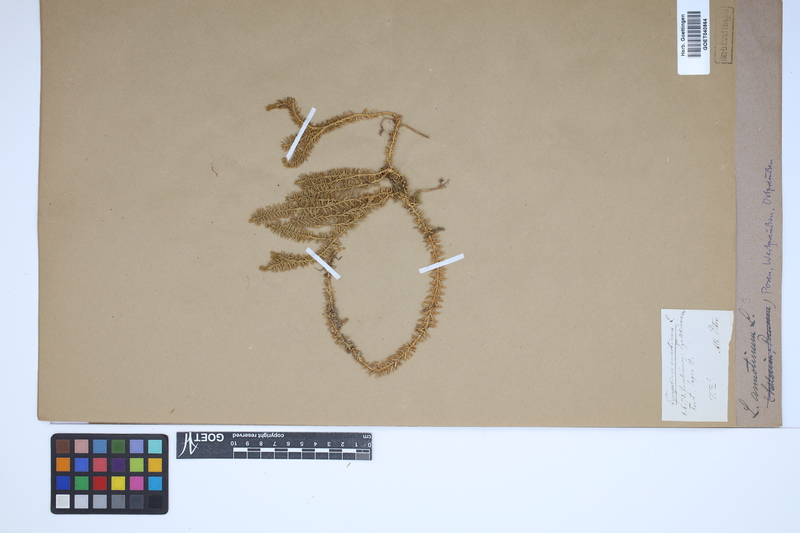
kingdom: Plantae
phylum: Tracheophyta
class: Lycopodiopsida
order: Lycopodiales
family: Lycopodiaceae
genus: Spinulum
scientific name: Spinulum annotinum
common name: Interrupted club-moss
